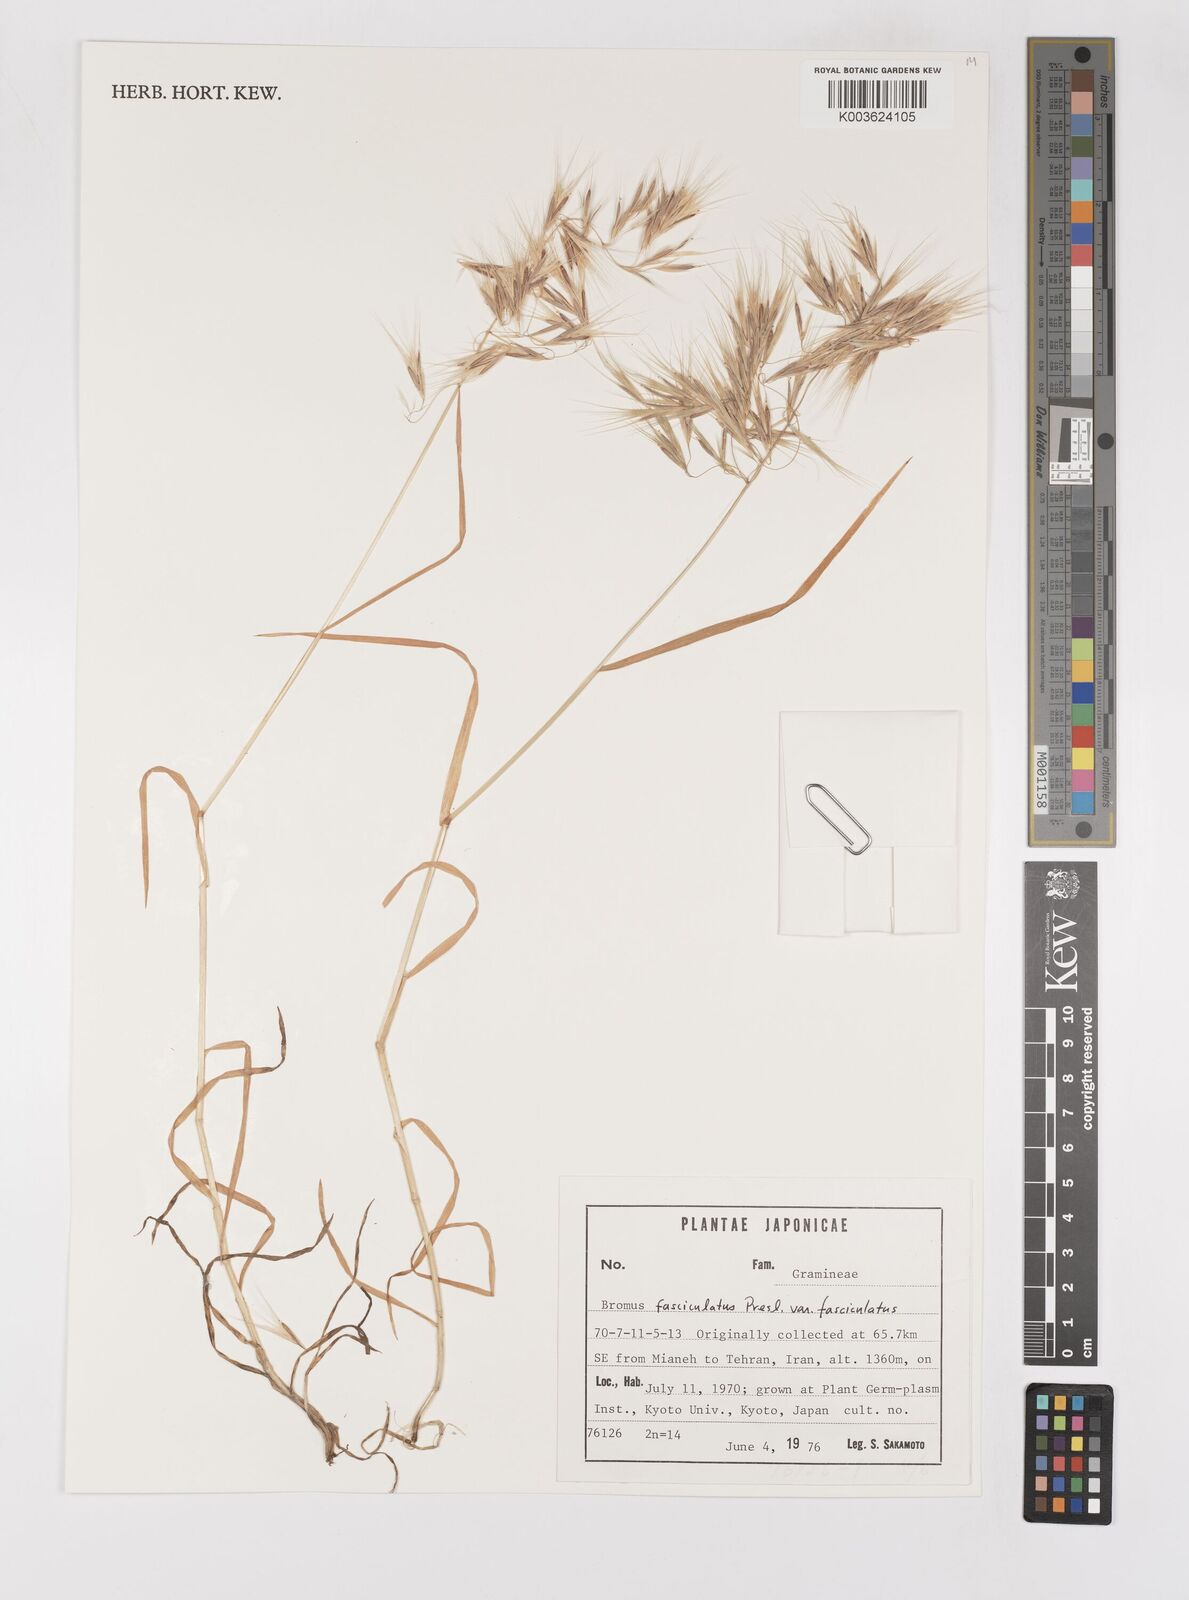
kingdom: Plantae
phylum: Tracheophyta
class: Liliopsida
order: Poales
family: Poaceae
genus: Bromus
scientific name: Bromus fasciculatus
